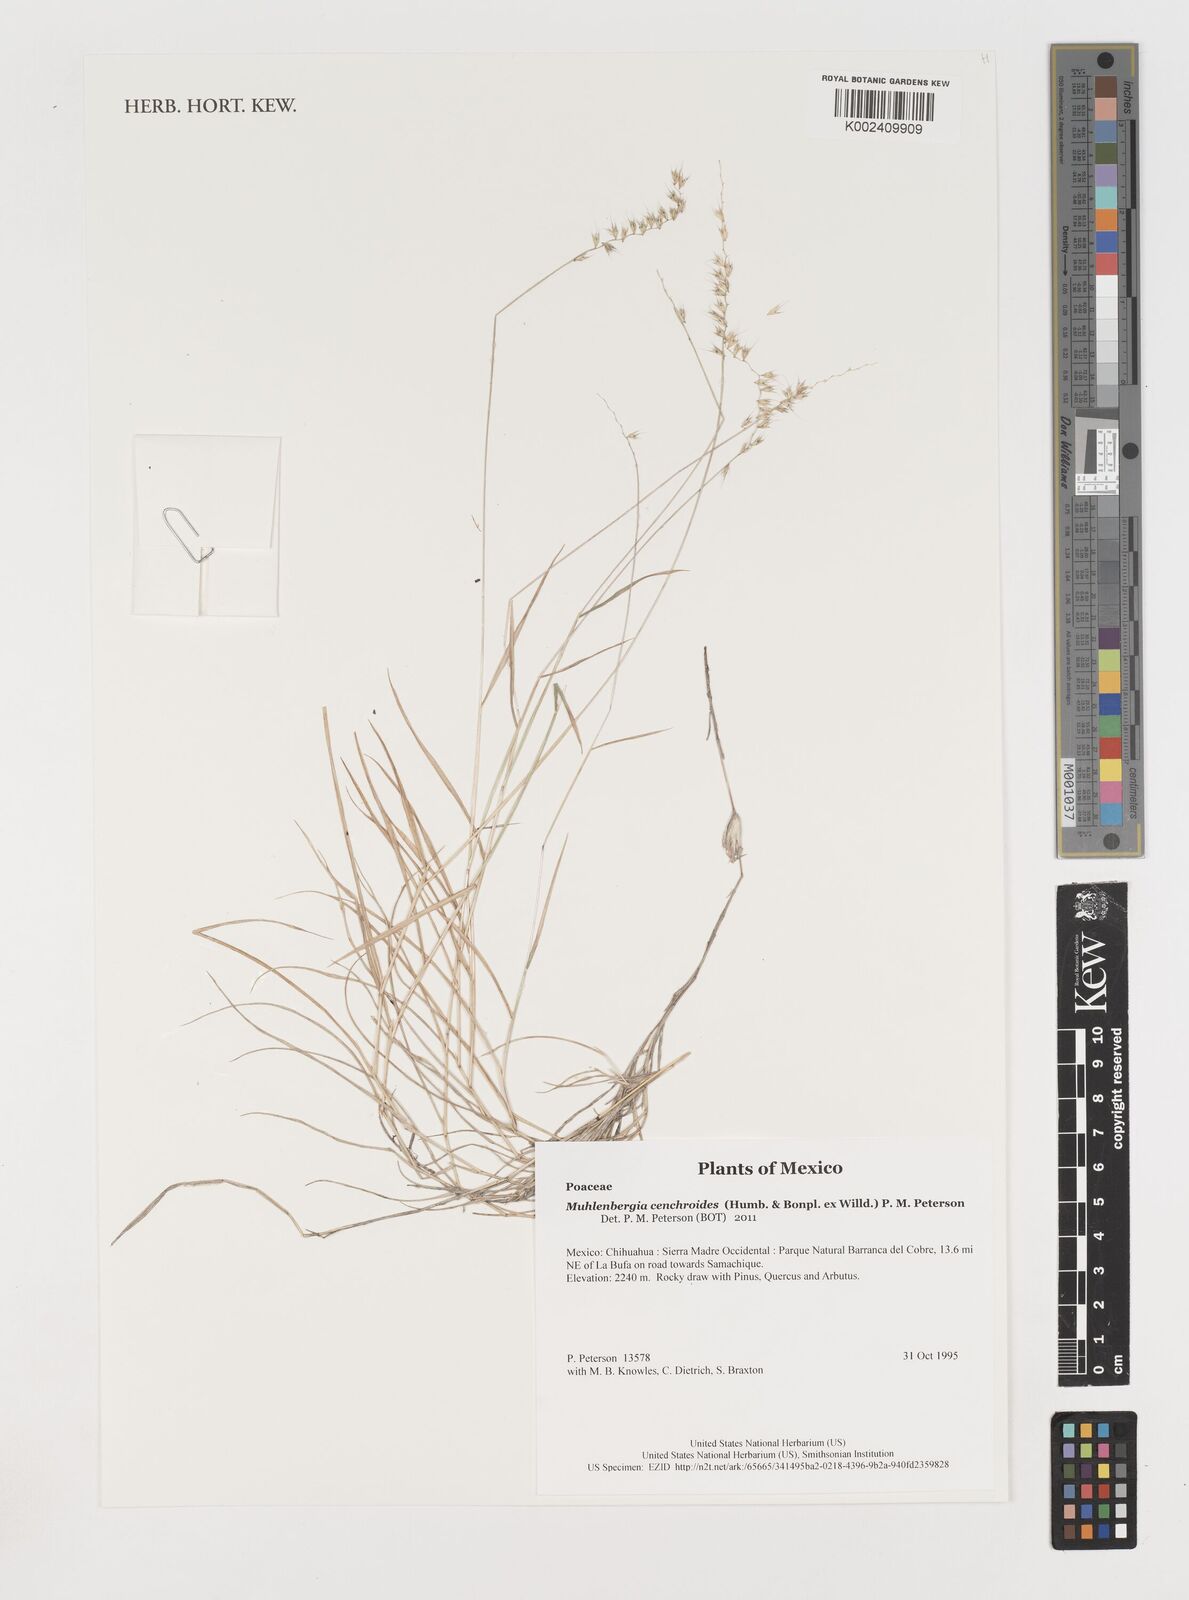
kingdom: Plantae
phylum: Tracheophyta
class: Liliopsida
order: Poales
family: Poaceae
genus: Muhlenbergia
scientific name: Muhlenbergia cenchroides
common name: Relaxgrass
